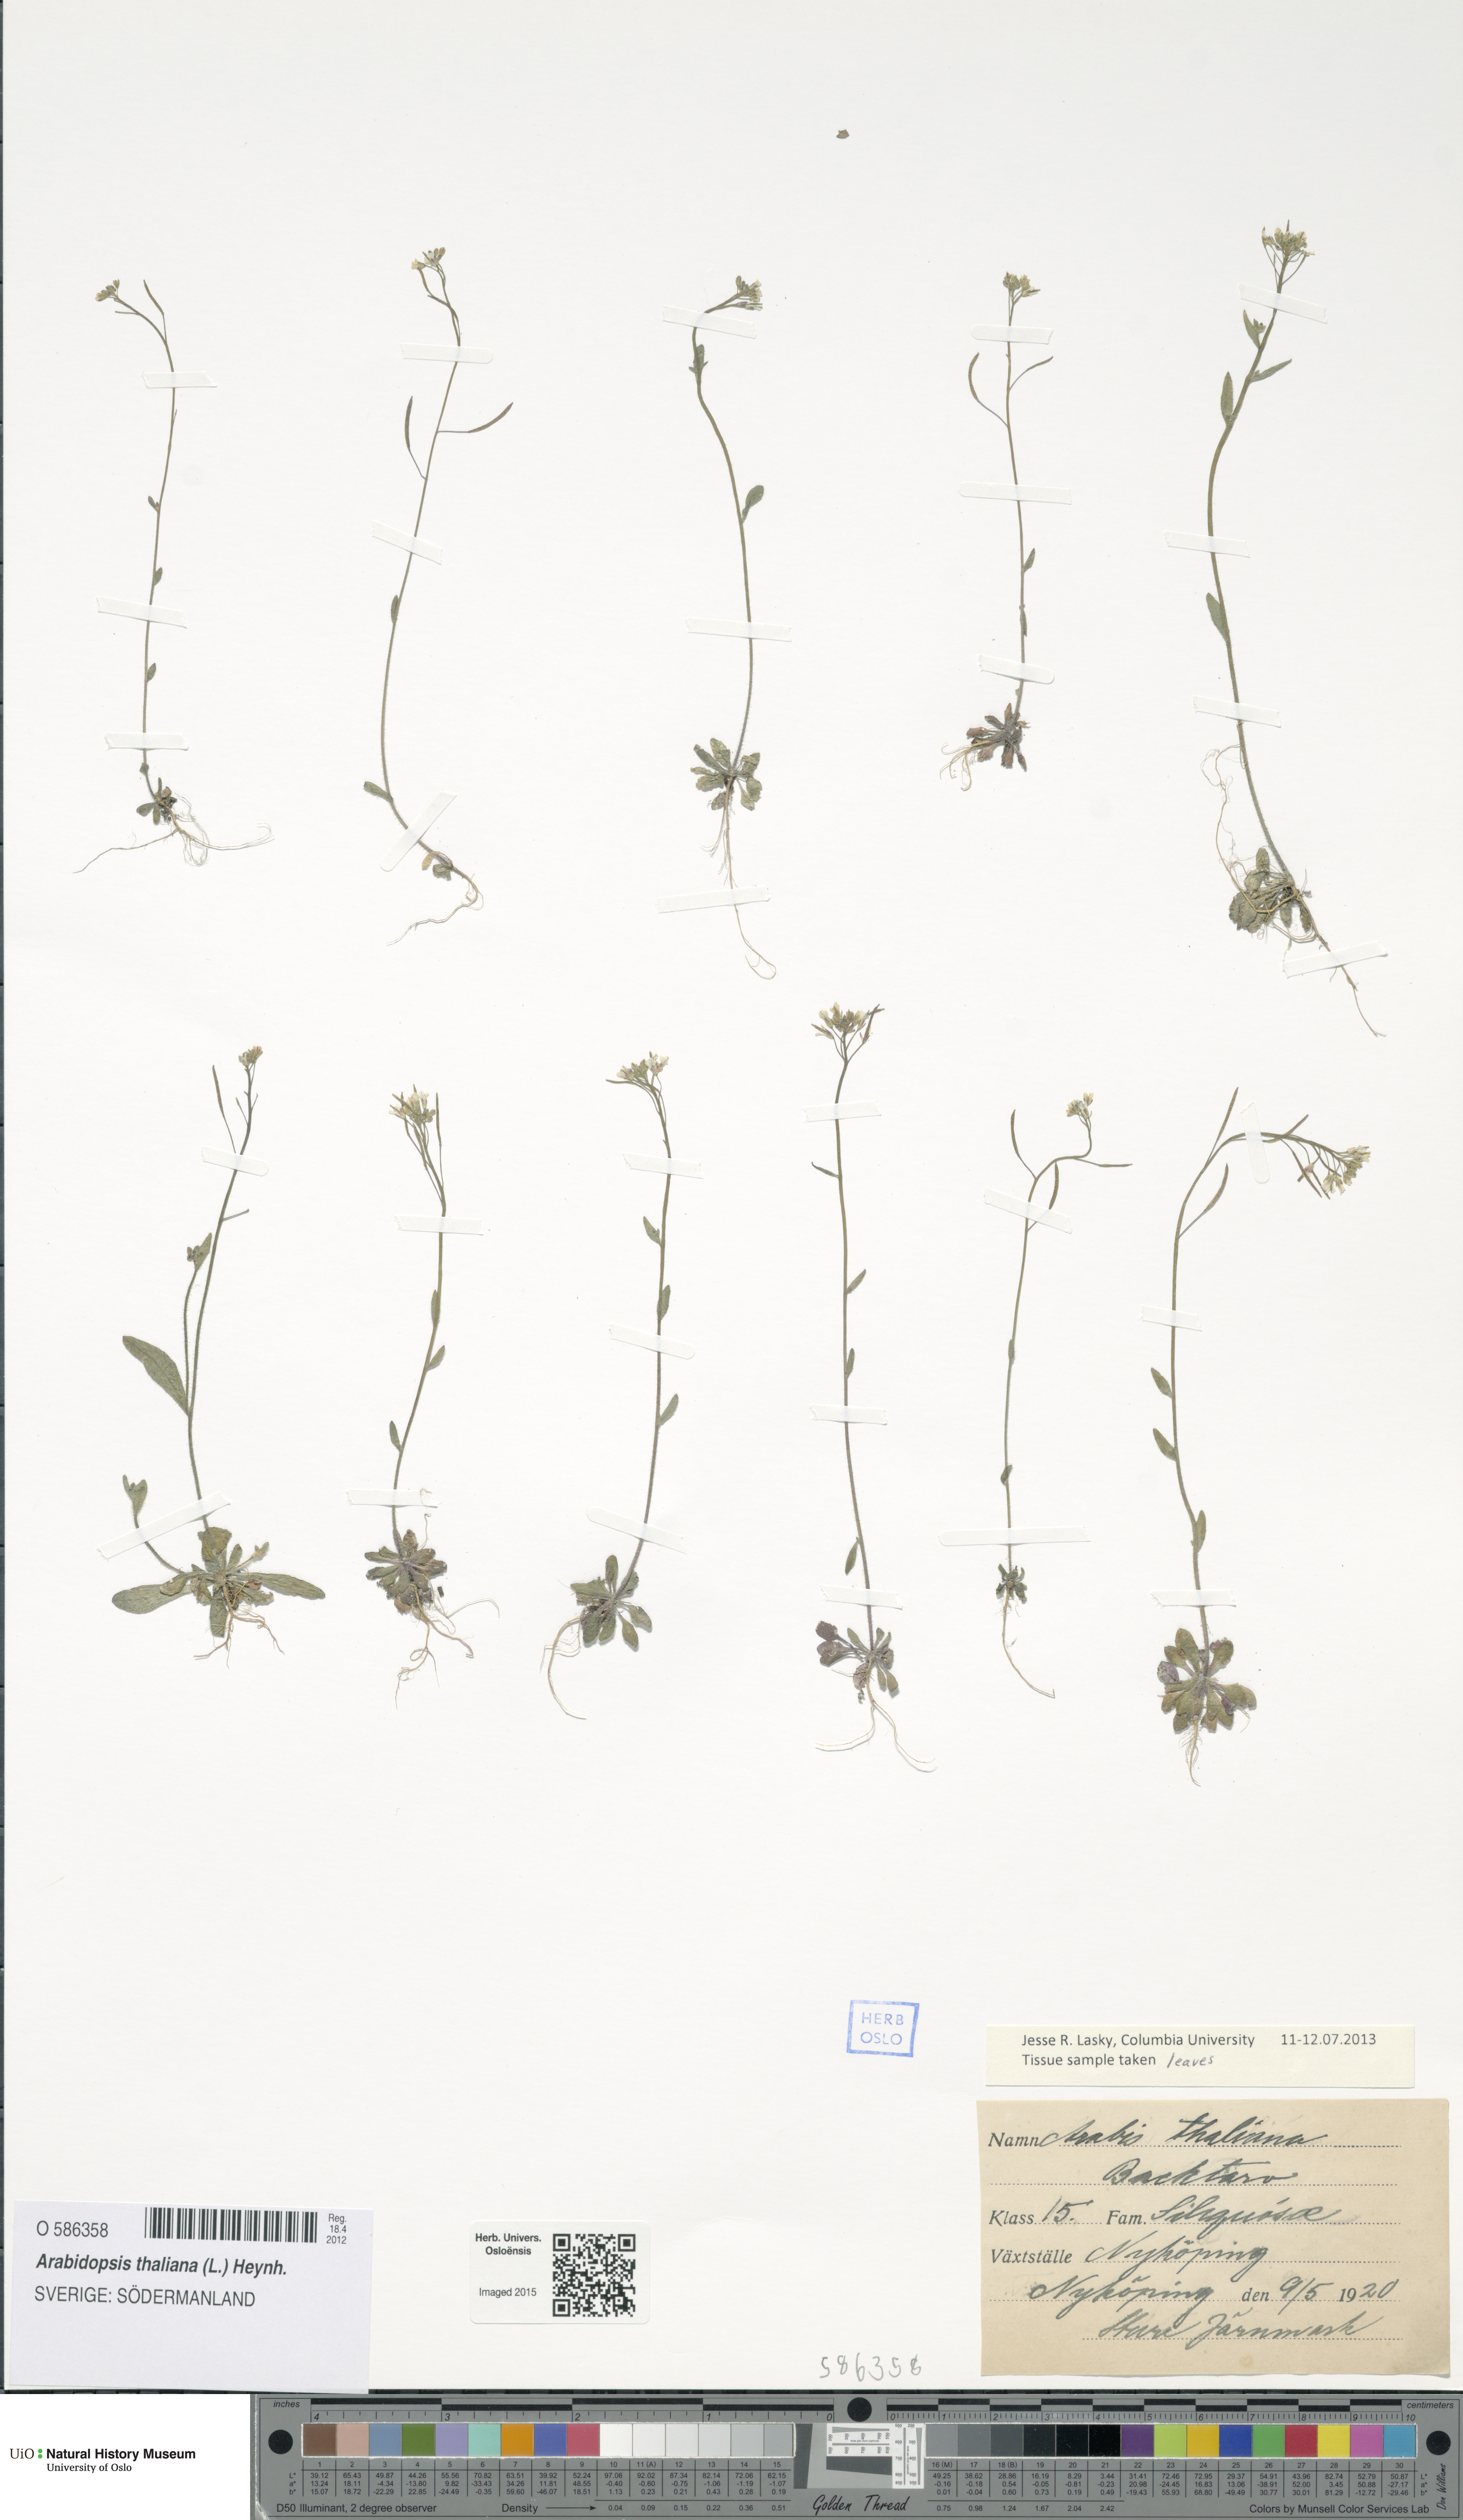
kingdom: Plantae
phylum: Tracheophyta
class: Magnoliopsida
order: Brassicales
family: Brassicaceae
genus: Arabidopsis
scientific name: Arabidopsis thaliana
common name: Thale cress
